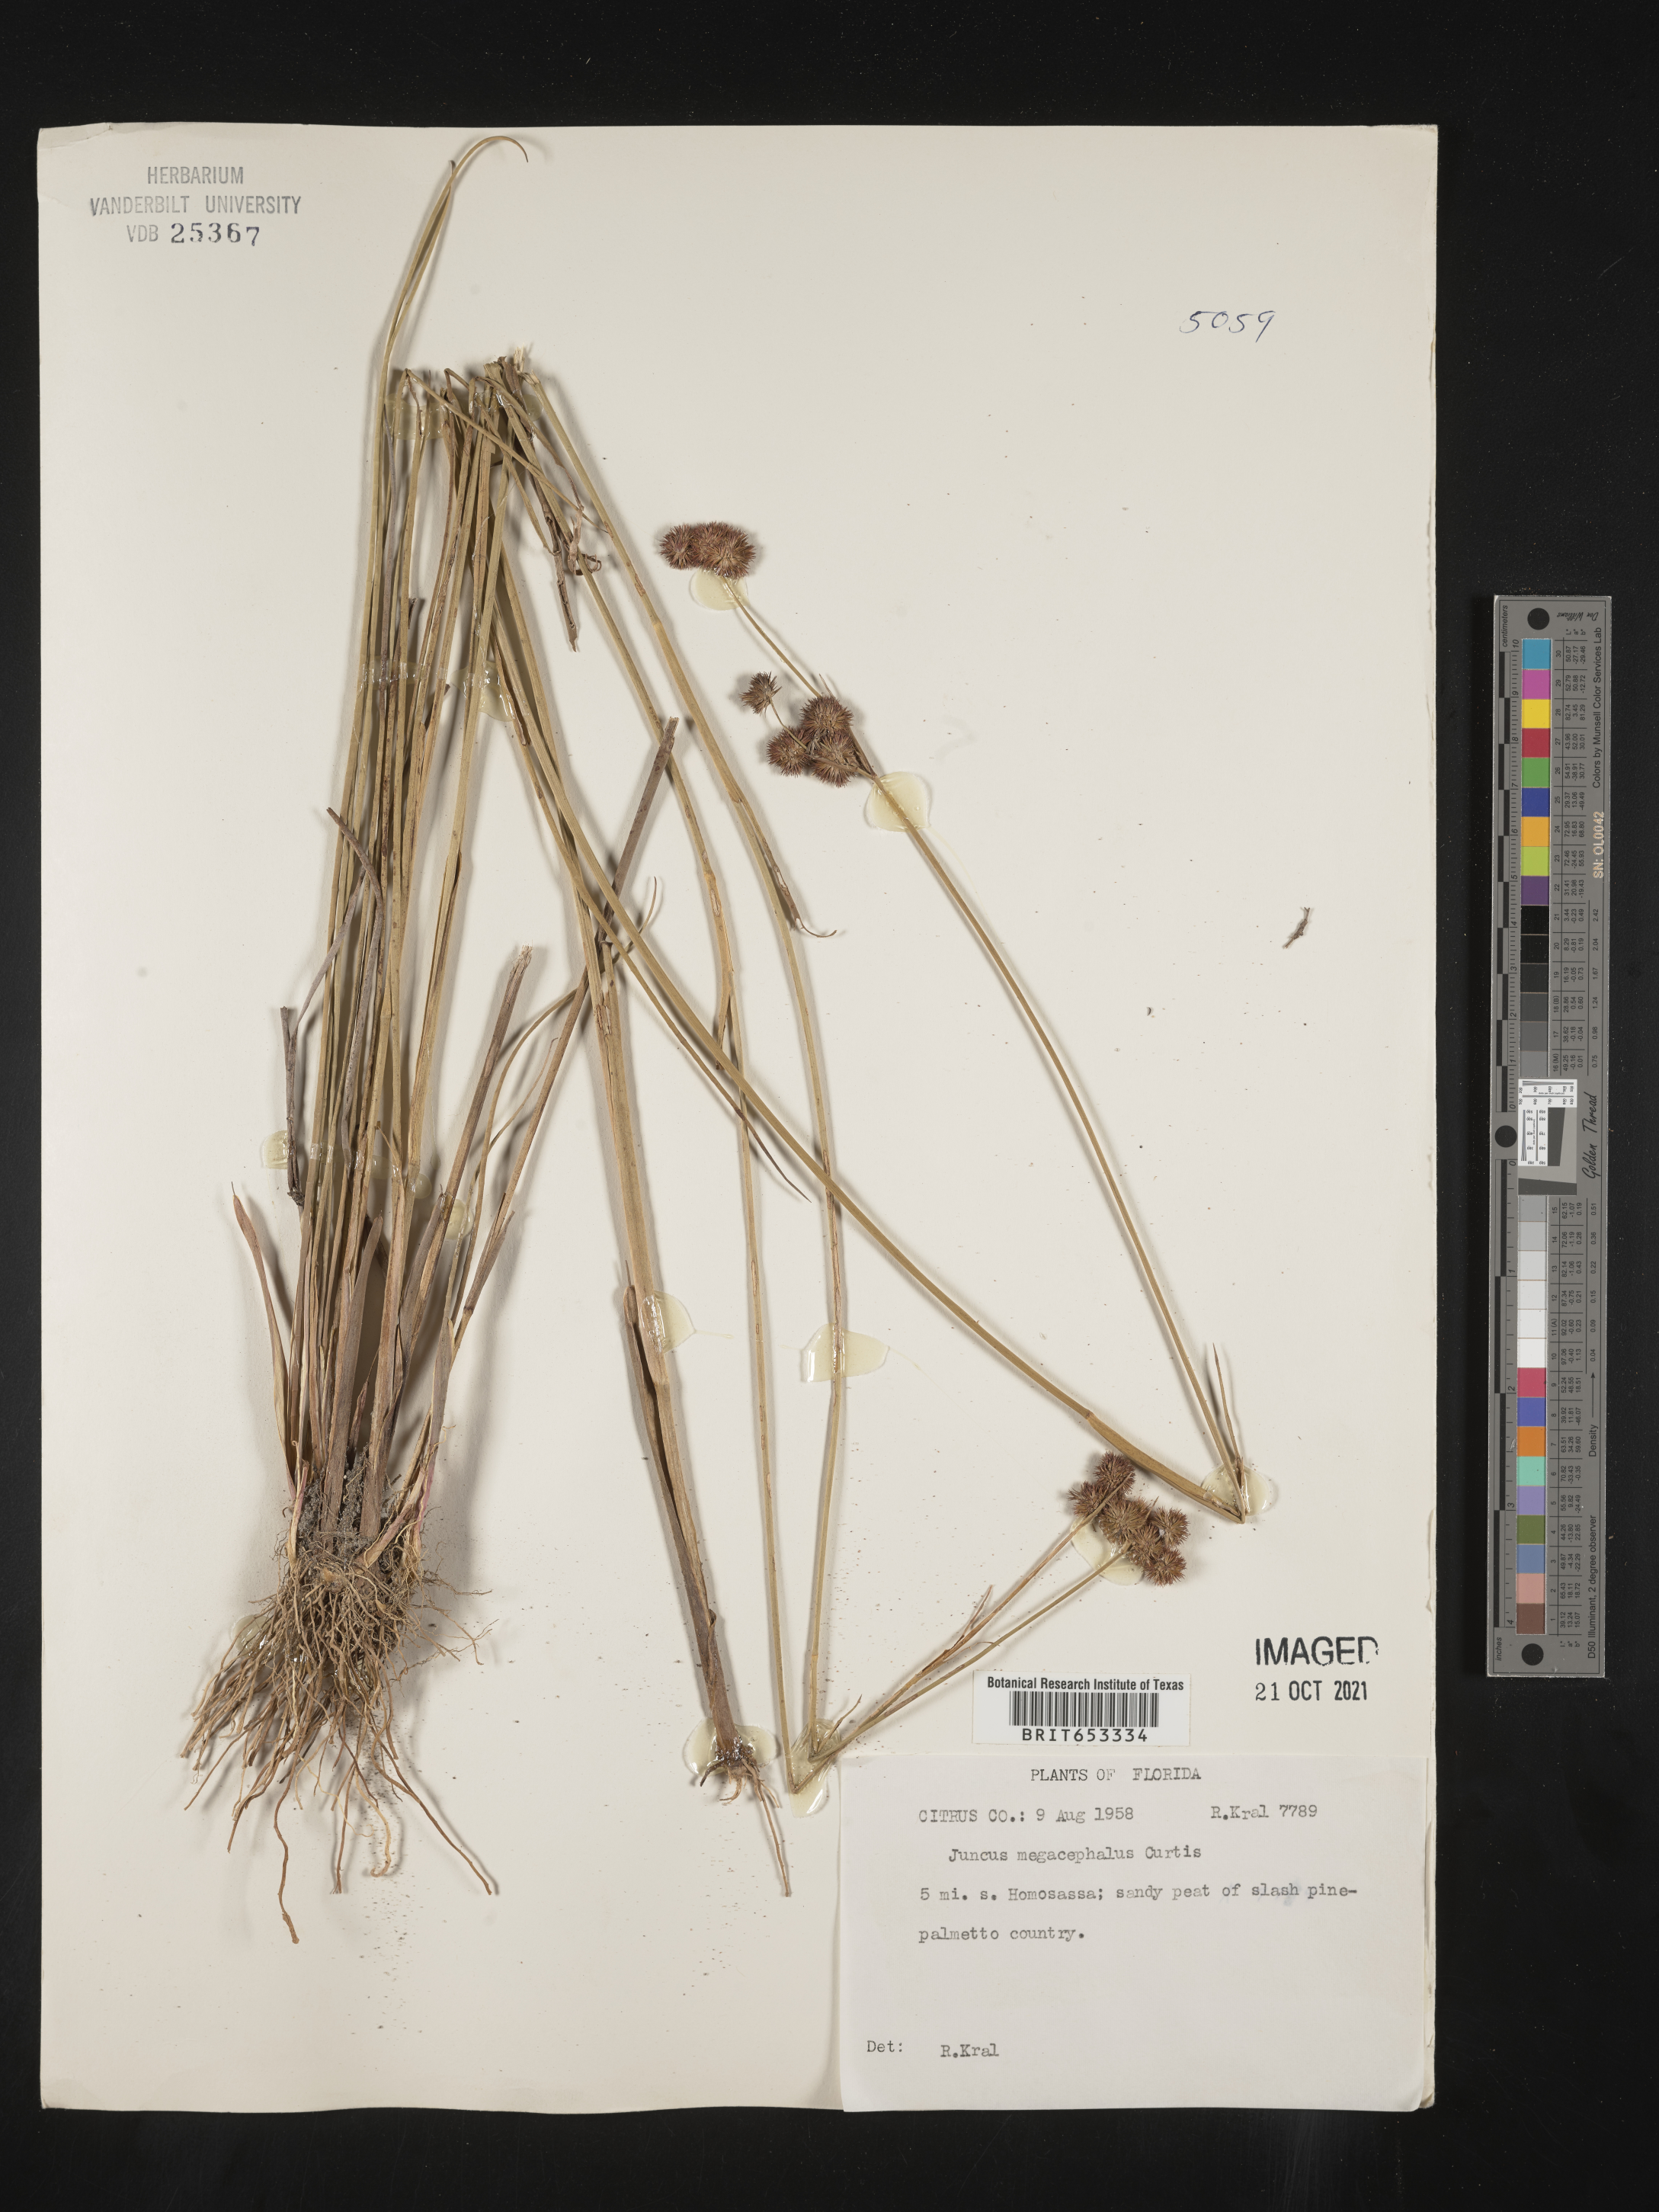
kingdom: Plantae
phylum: Tracheophyta
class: Liliopsida
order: Poales
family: Juncaceae
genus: Juncus
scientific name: Juncus megacephalus
